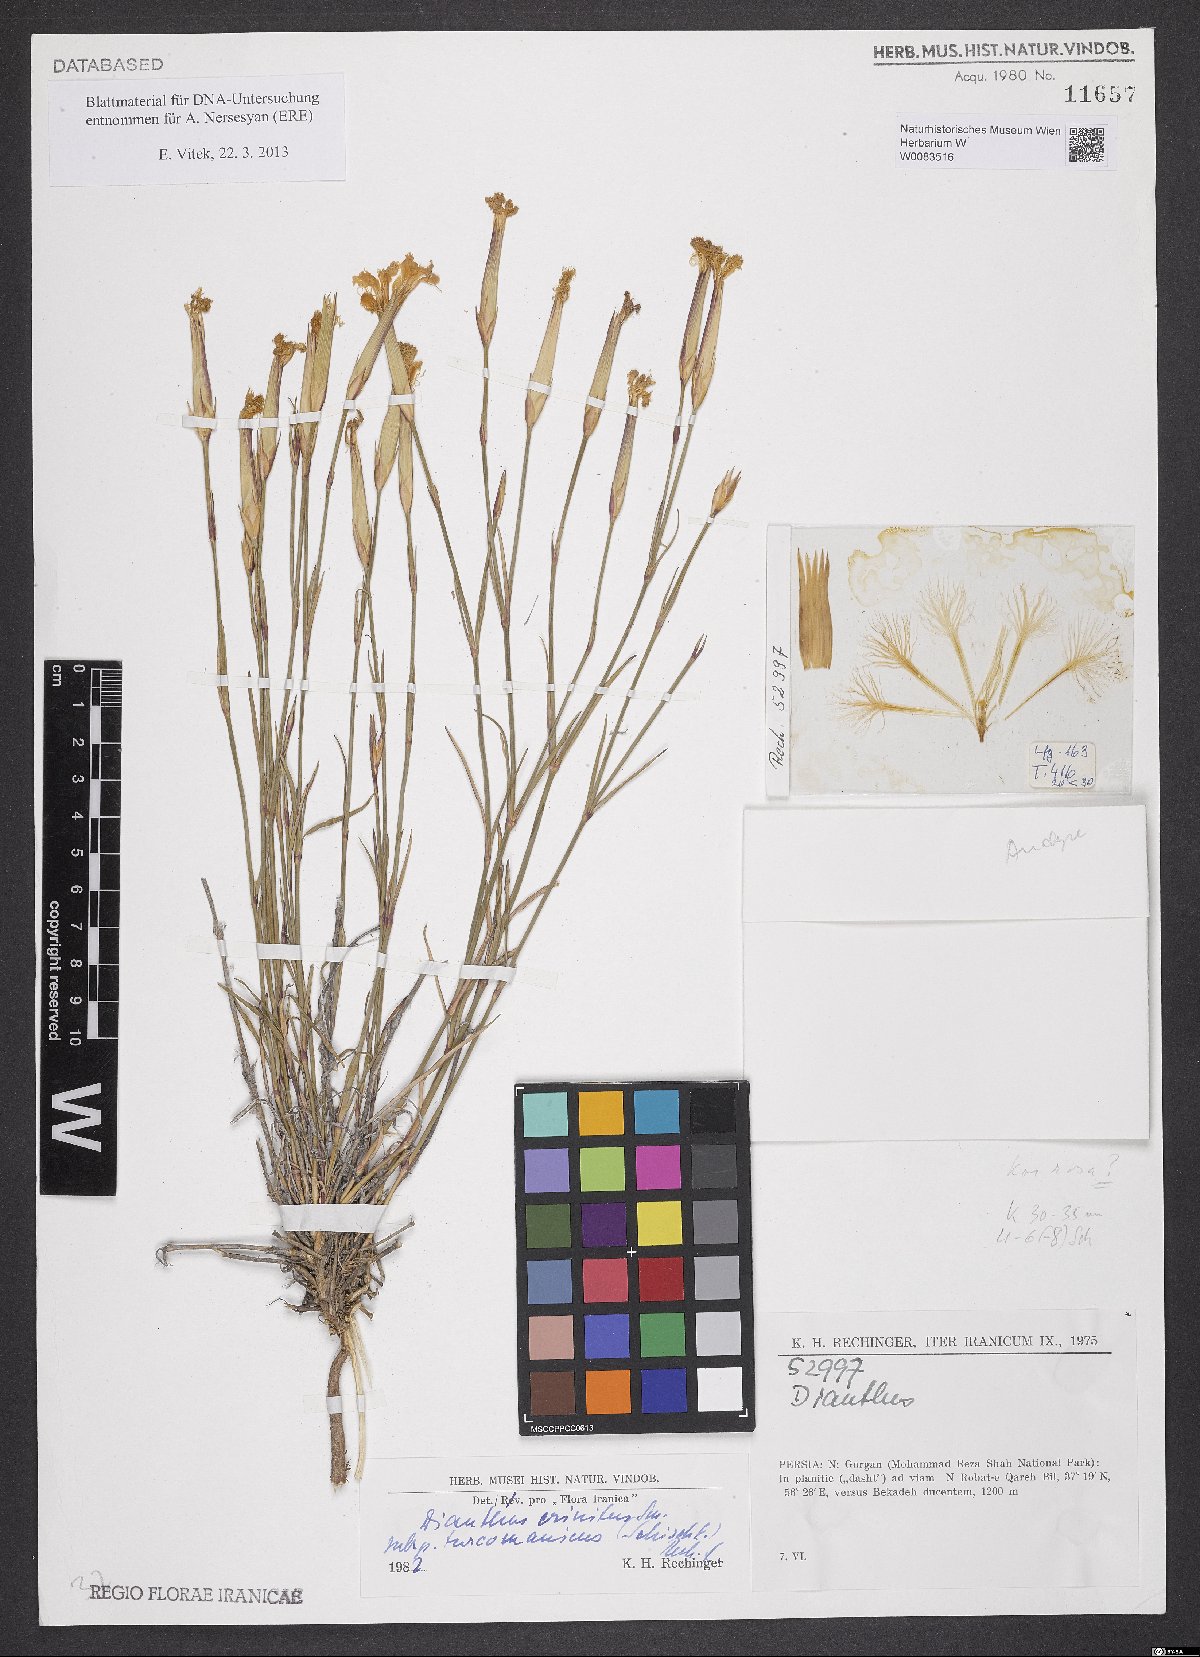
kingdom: Plantae
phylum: Tracheophyta
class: Magnoliopsida
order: Caryophyllales
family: Caryophyllaceae
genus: Dianthus
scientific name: Dianthus turkestanicus
